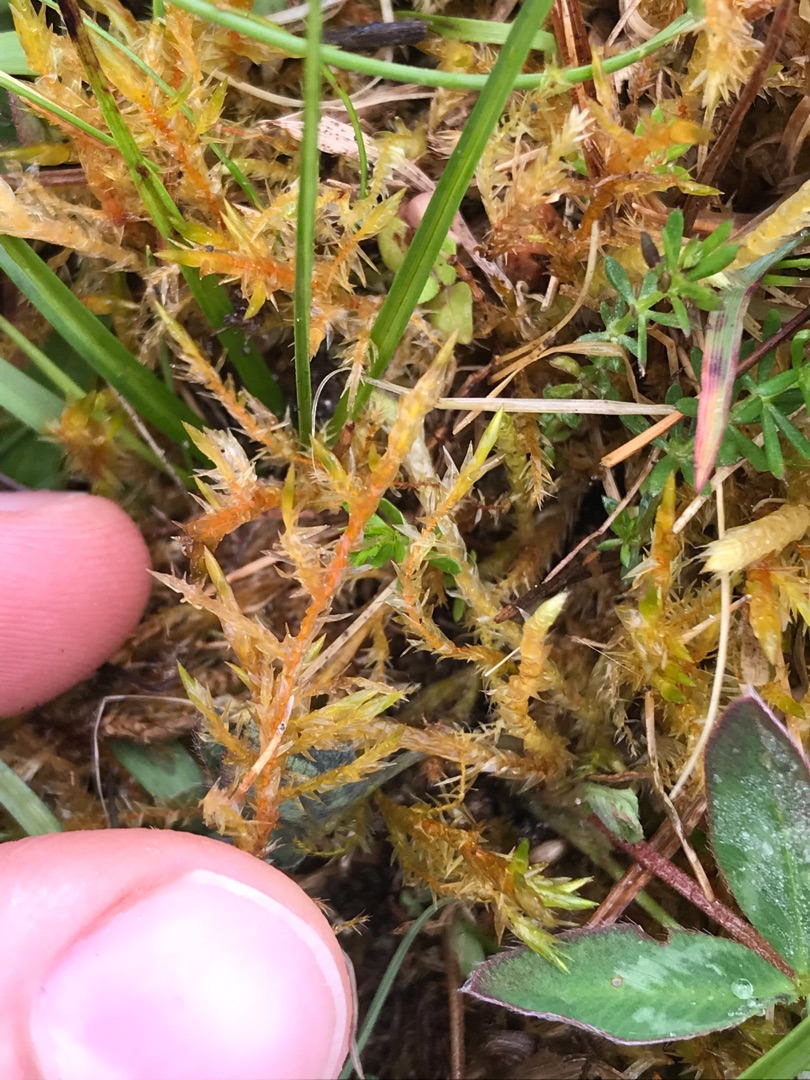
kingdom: Plantae
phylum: Bryophyta
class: Bryopsida
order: Hypnales
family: Pylaisiaceae
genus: Calliergonella
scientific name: Calliergonella cuspidata
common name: Spids spydmos
